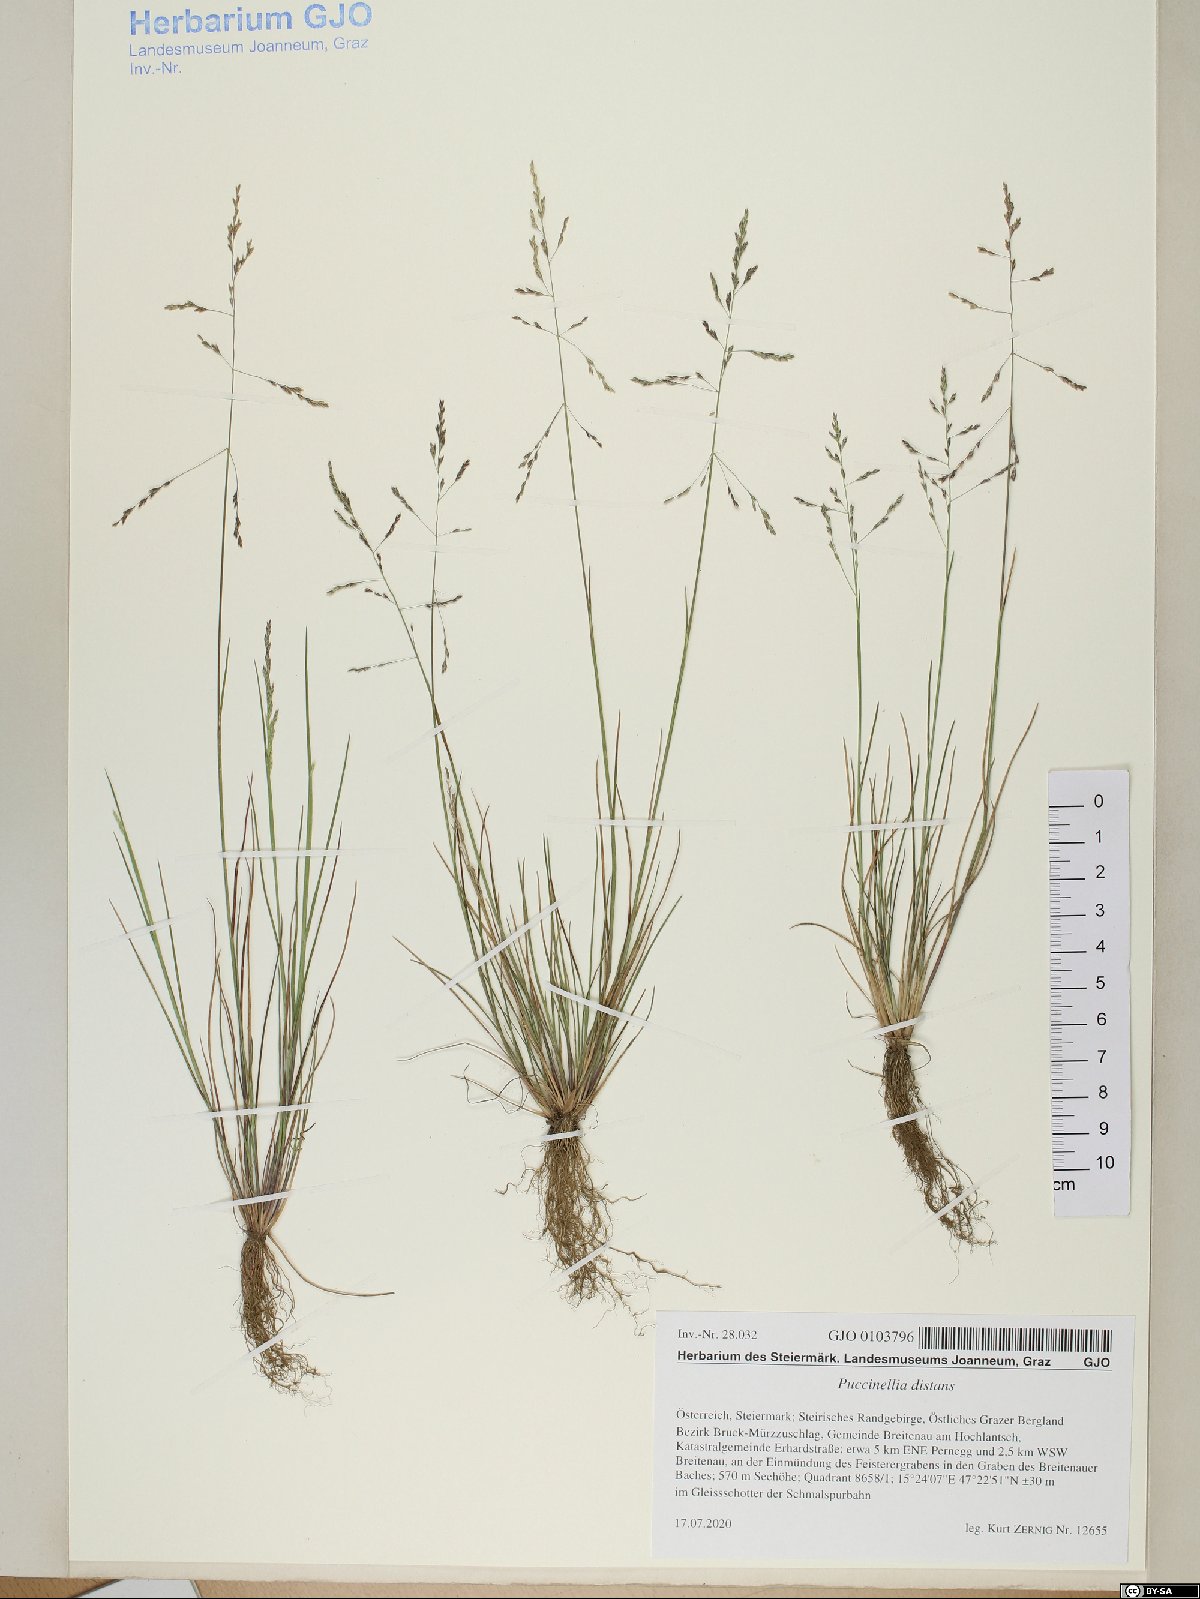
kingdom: Plantae
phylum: Tracheophyta
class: Liliopsida
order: Poales
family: Poaceae
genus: Puccinellia
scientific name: Puccinellia distans
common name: Weeping alkaligrass
